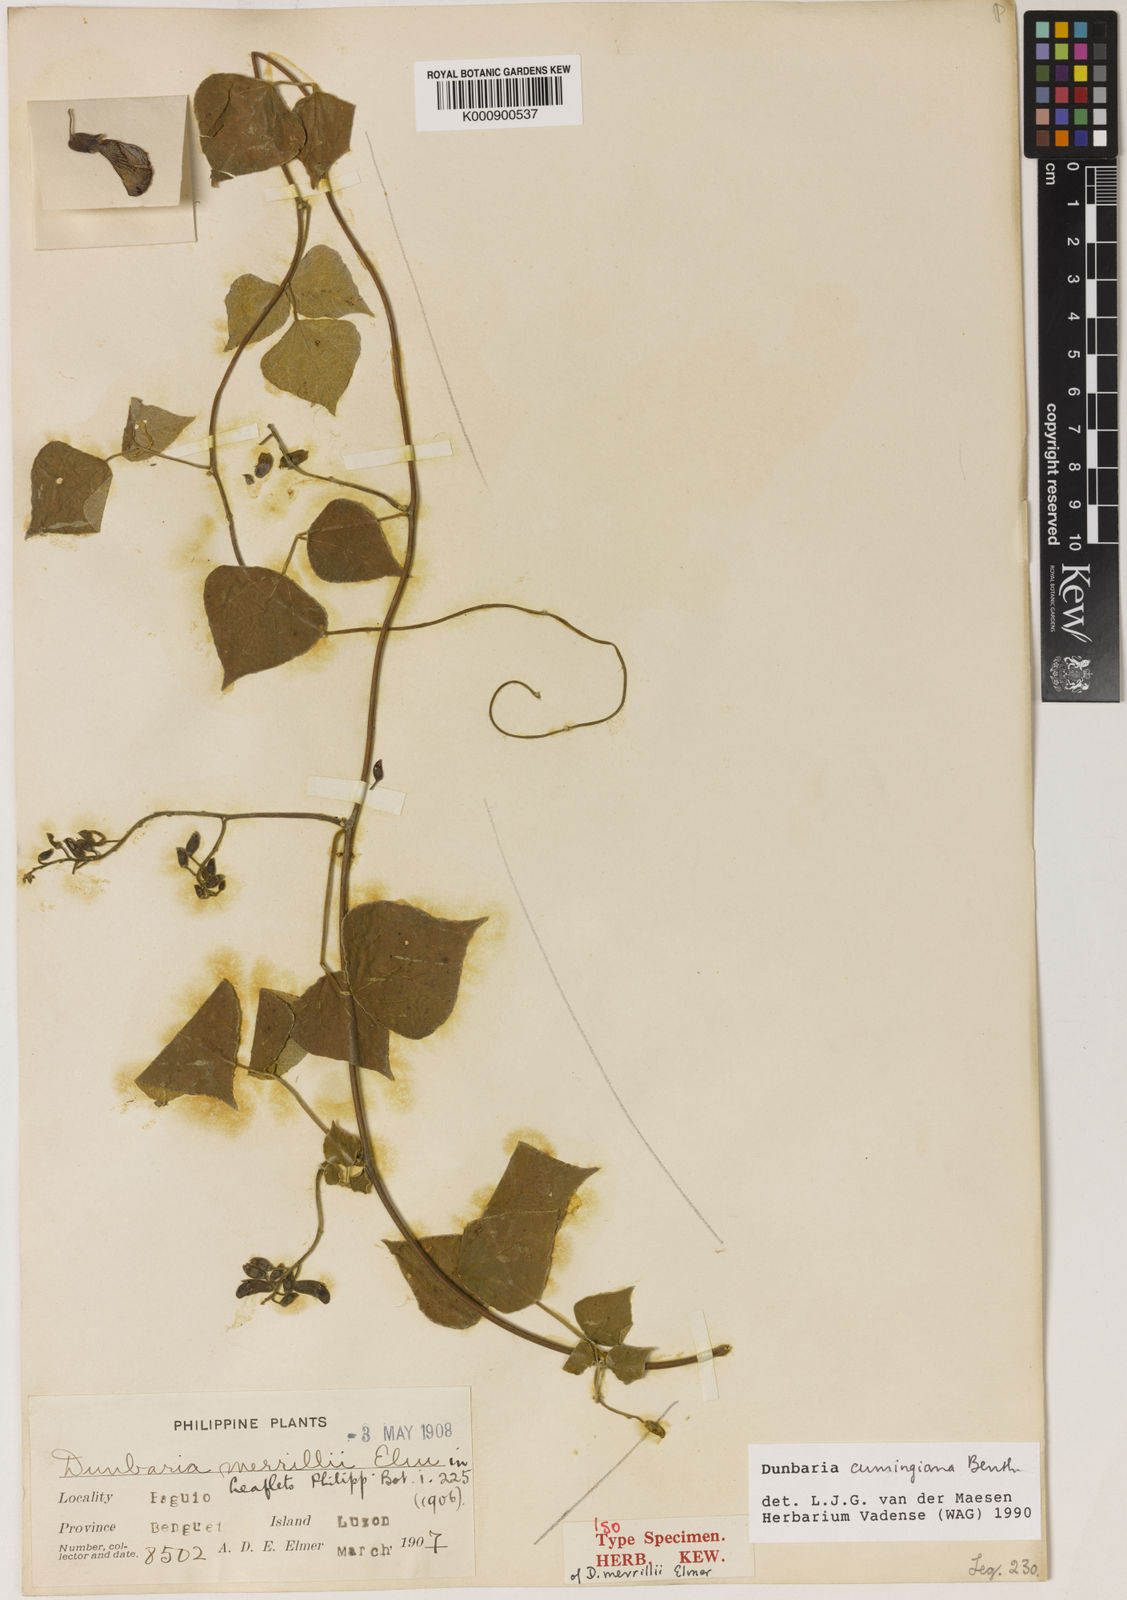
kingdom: Plantae
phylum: Tracheophyta
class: Magnoliopsida
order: Fabales
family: Fabaceae
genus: Dunbaria
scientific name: Dunbaria cumingiana
